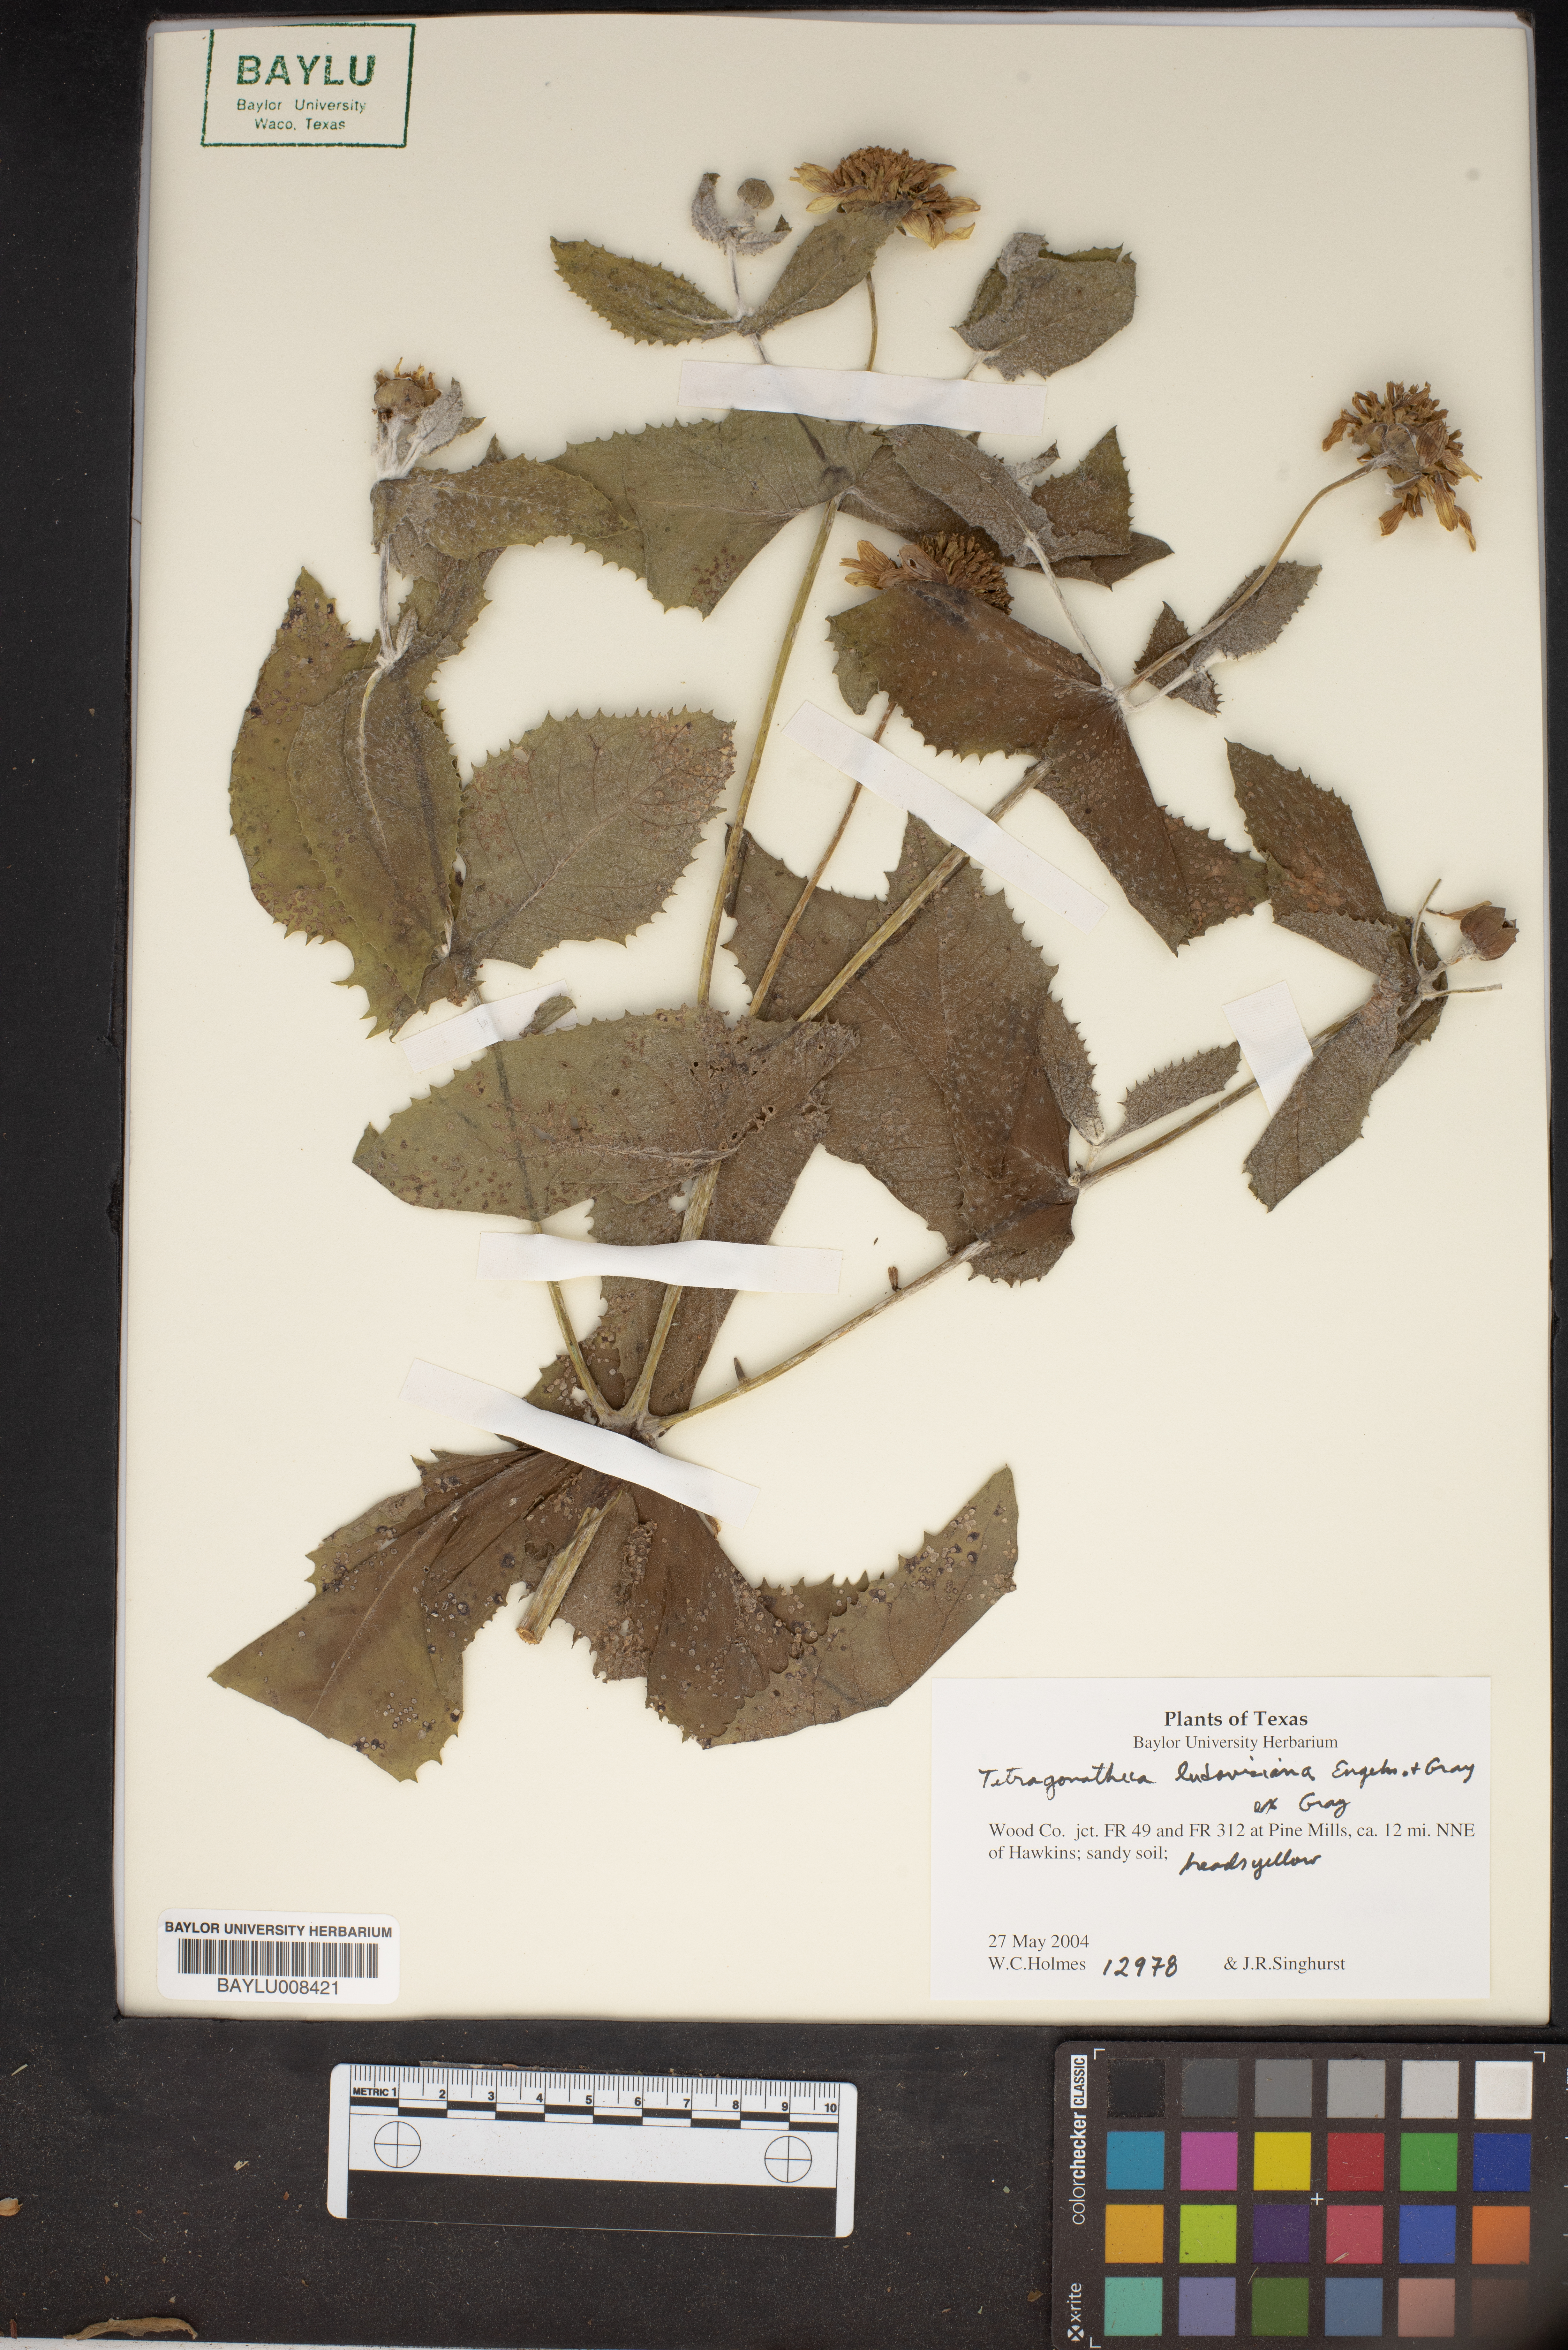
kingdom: Plantae
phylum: Tracheophyta
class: Magnoliopsida
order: Asterales
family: Asteraceae
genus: Tetragonotheca
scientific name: Tetragonotheca ludoviciana
